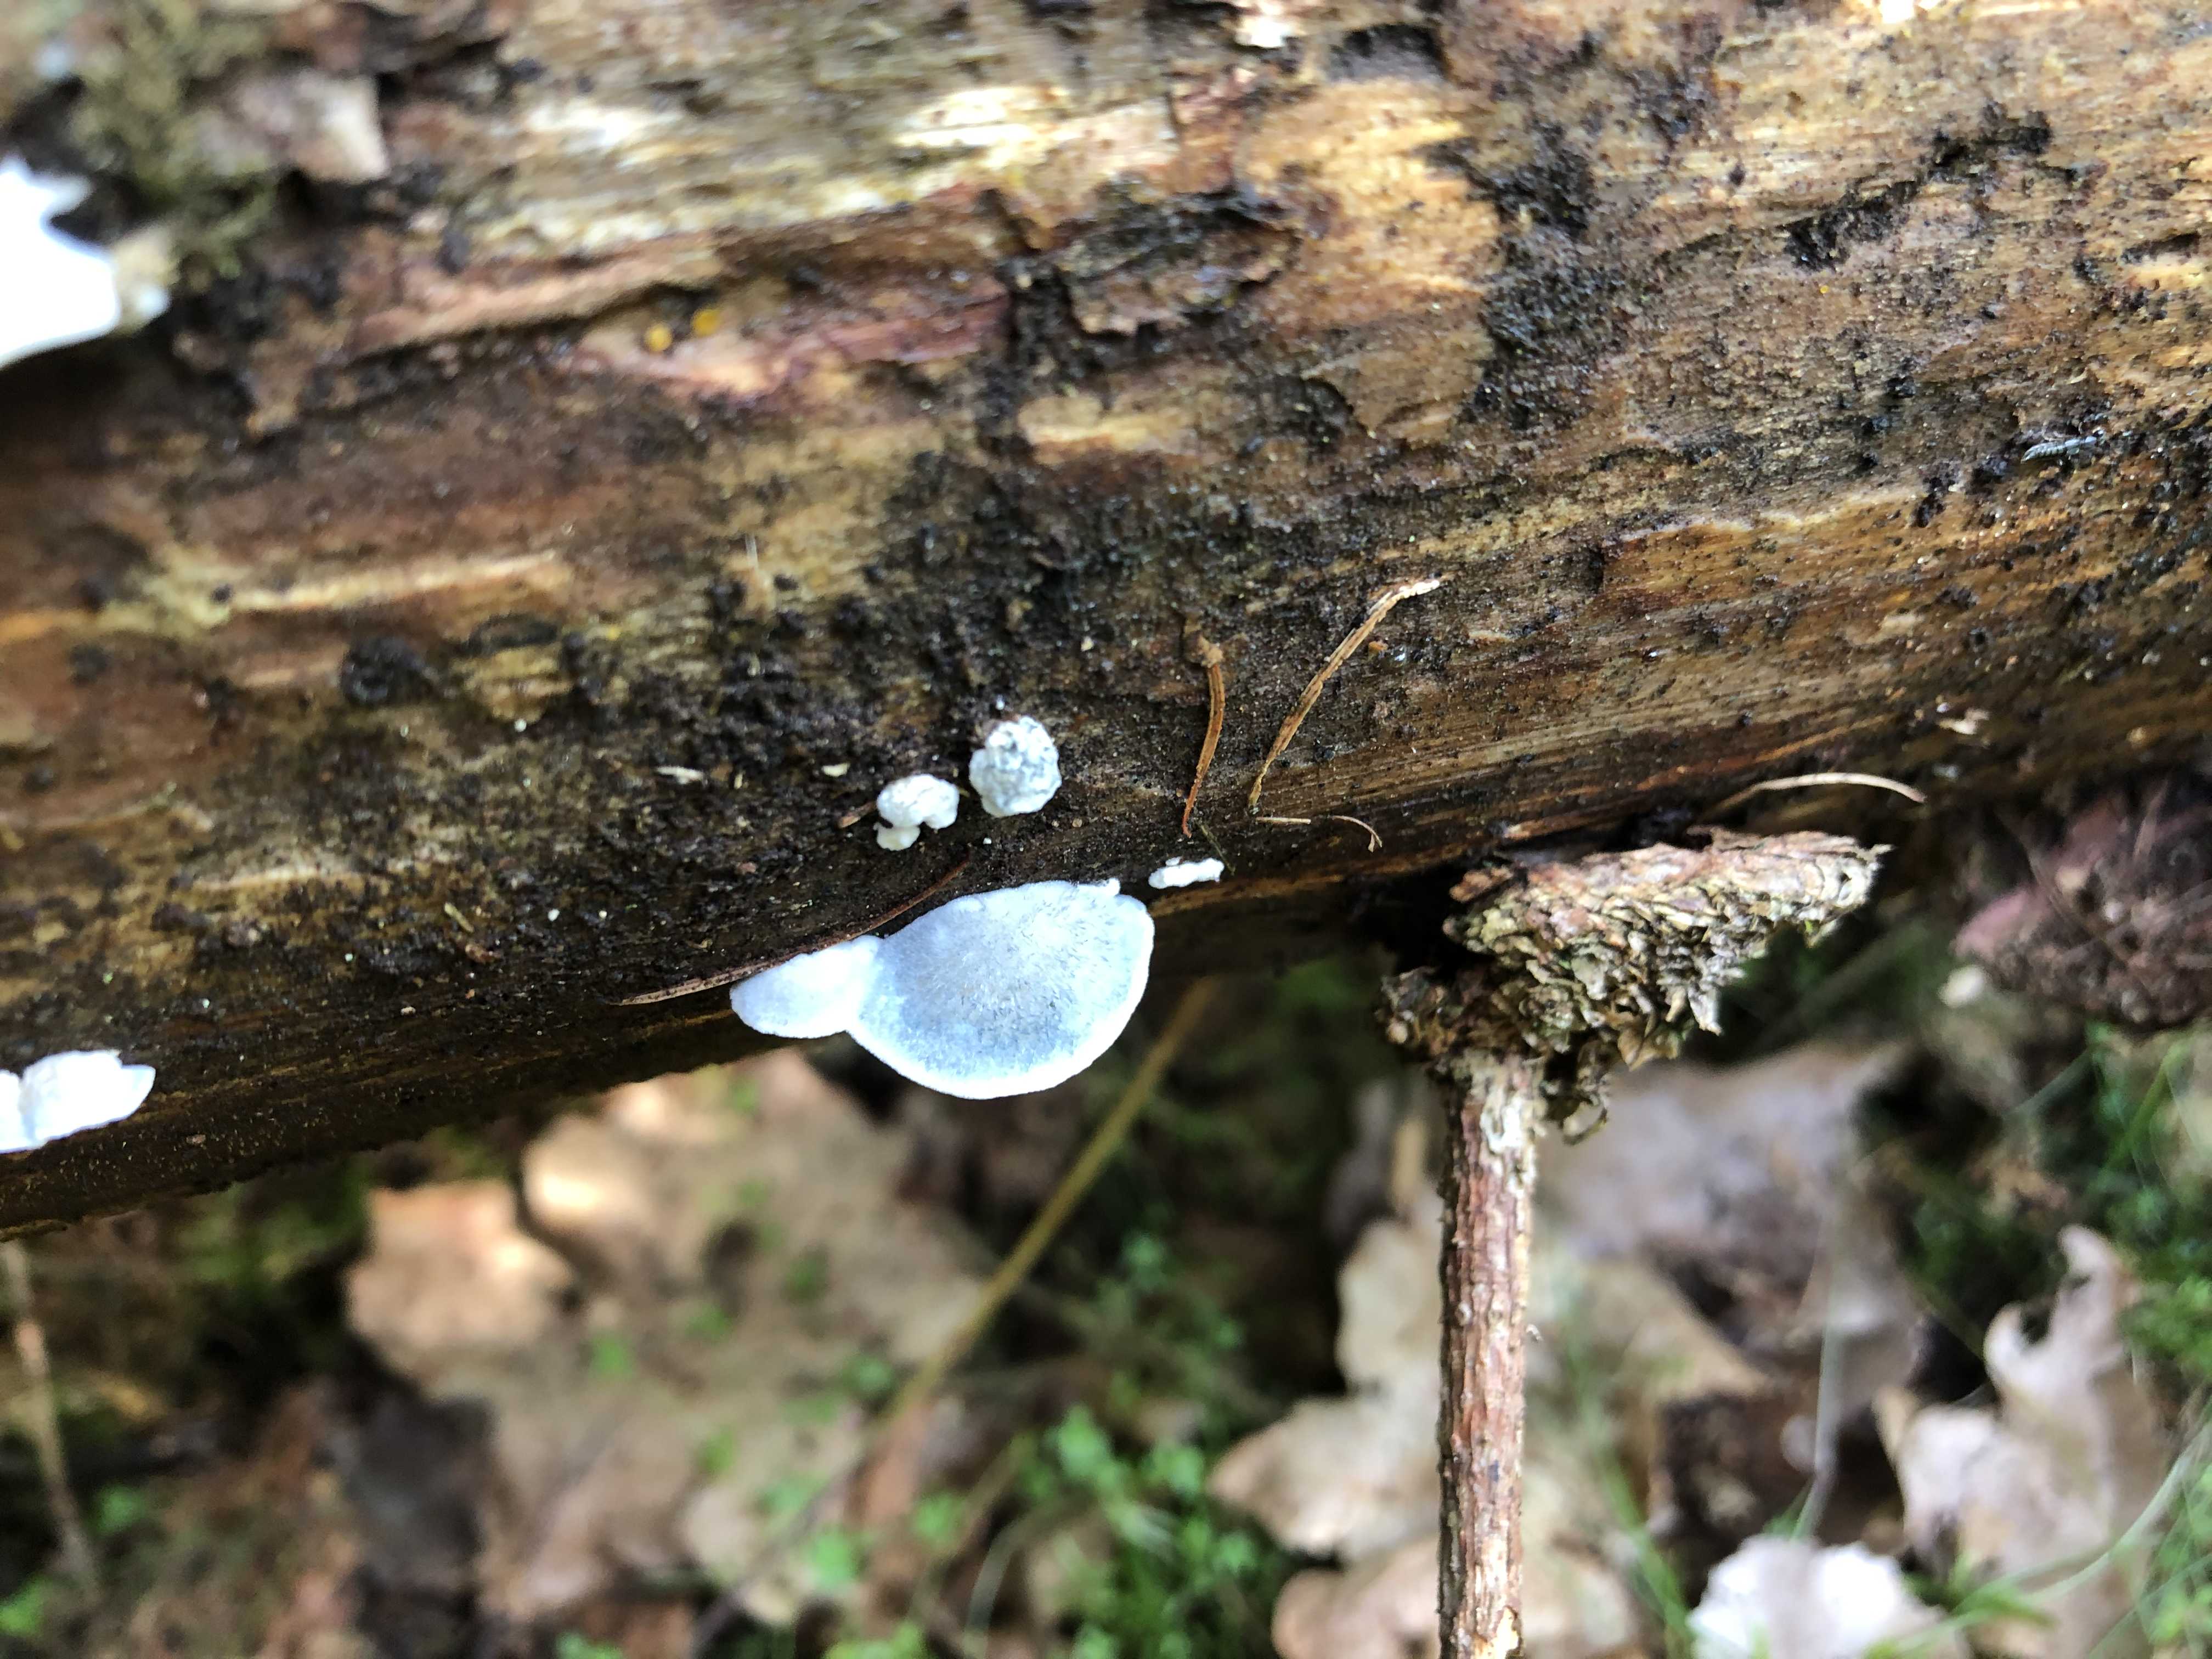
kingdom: Fungi
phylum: Basidiomycota
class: Agaricomycetes
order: Polyporales
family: Polyporaceae
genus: Cyanosporus
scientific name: Cyanosporus caesius
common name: blålig kødporesvamp
